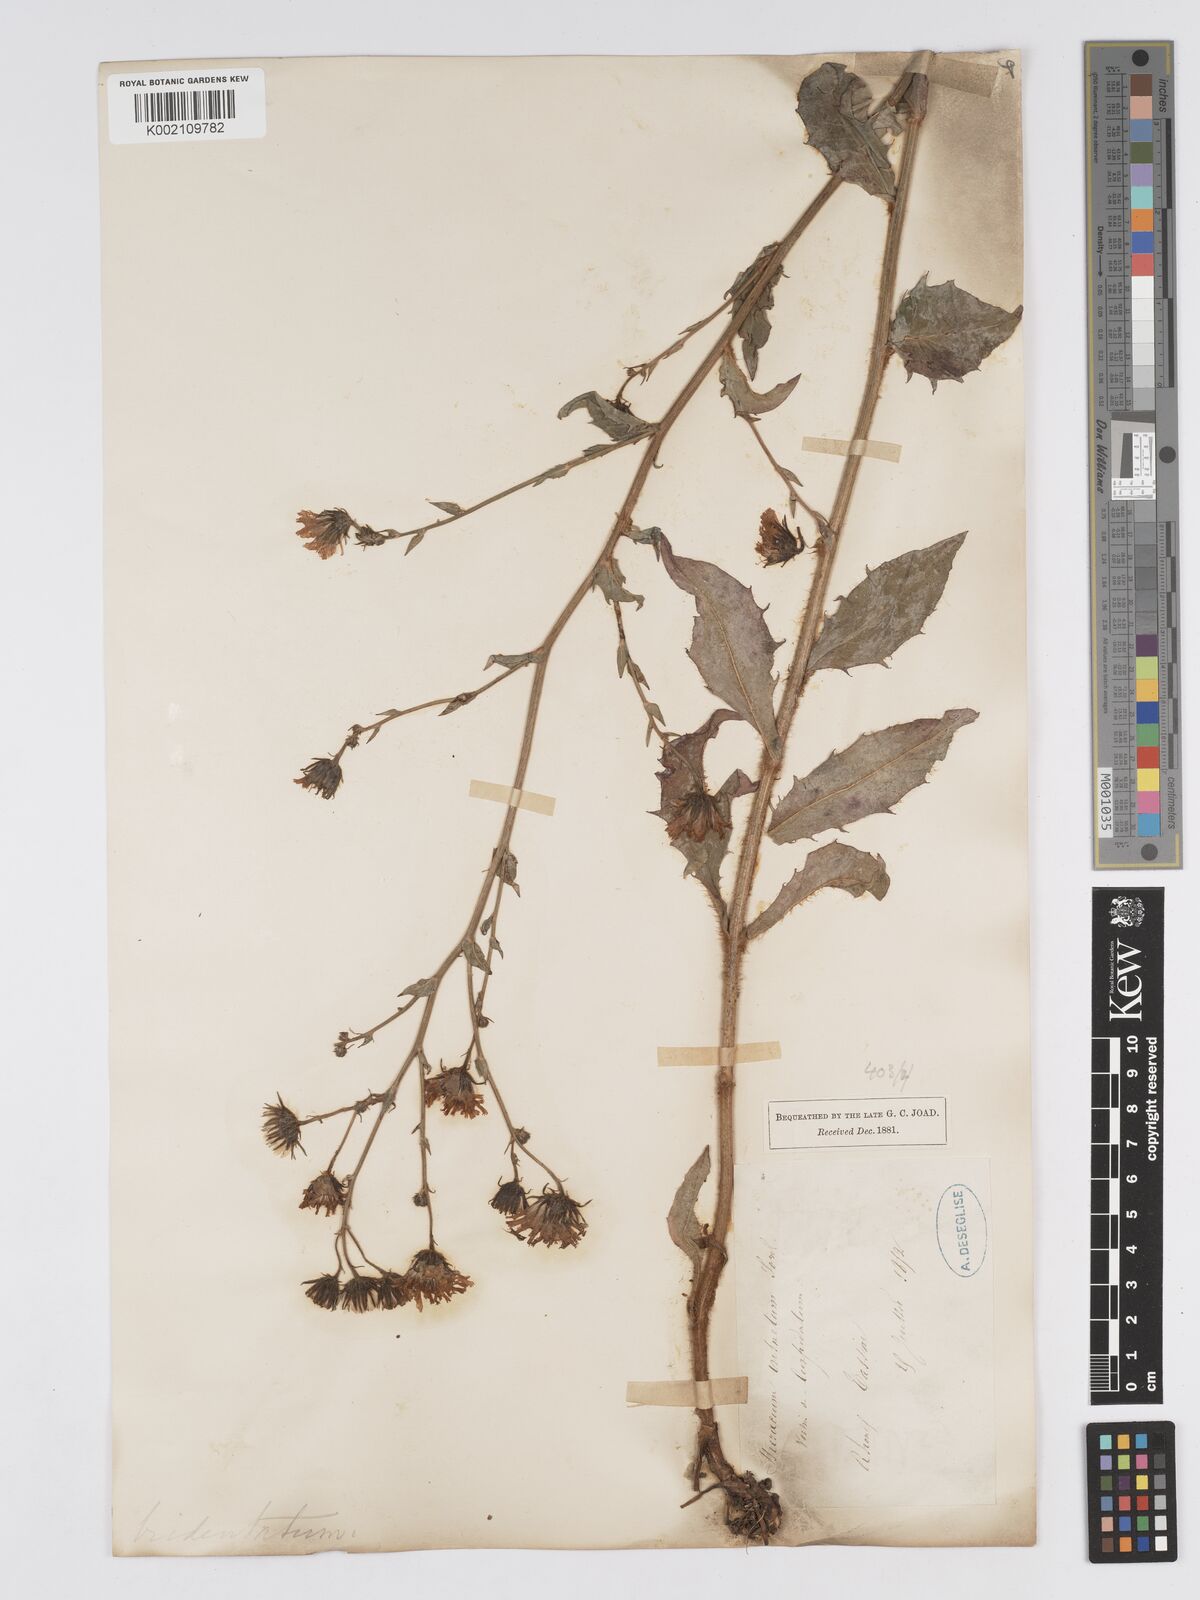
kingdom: Plantae
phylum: Tracheophyta
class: Magnoliopsida
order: Asterales
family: Asteraceae
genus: Hieracium
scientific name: Hieracium australe
